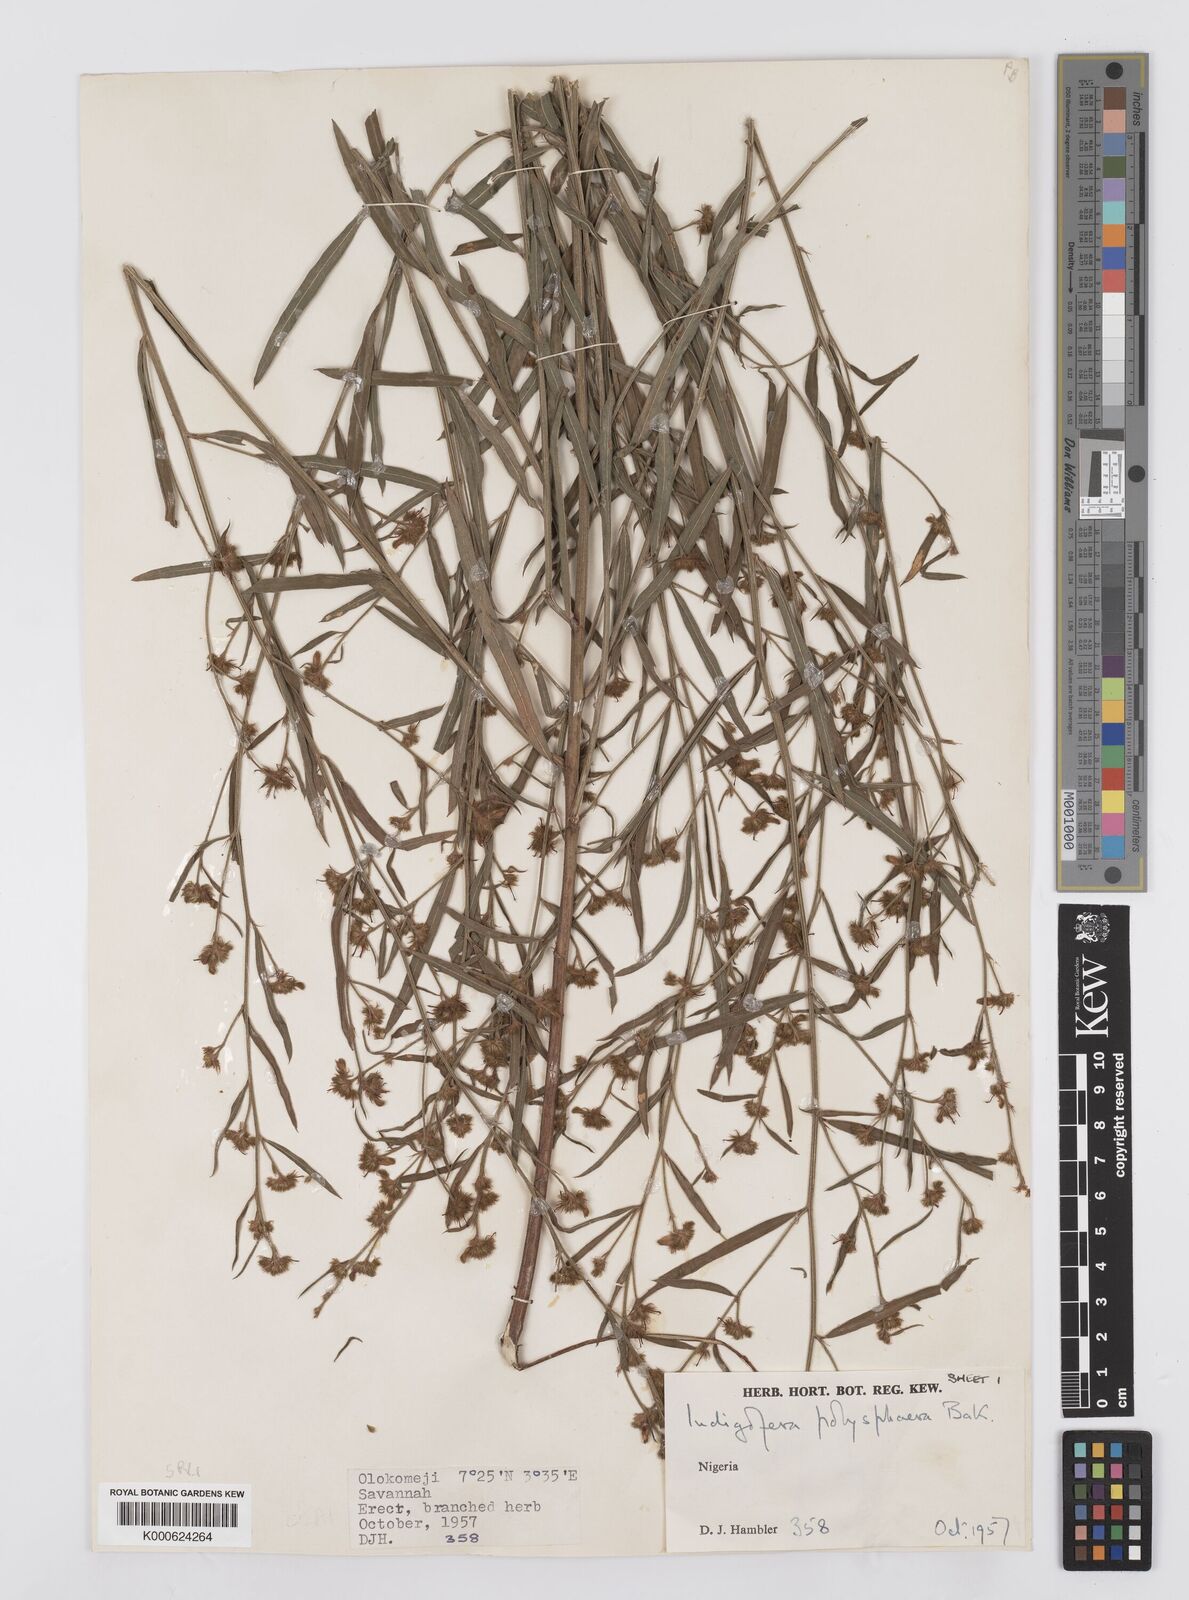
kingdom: Plantae
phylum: Tracheophyta
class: Magnoliopsida
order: Fabales
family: Fabaceae
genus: Albizia
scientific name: Albizia bernieri
